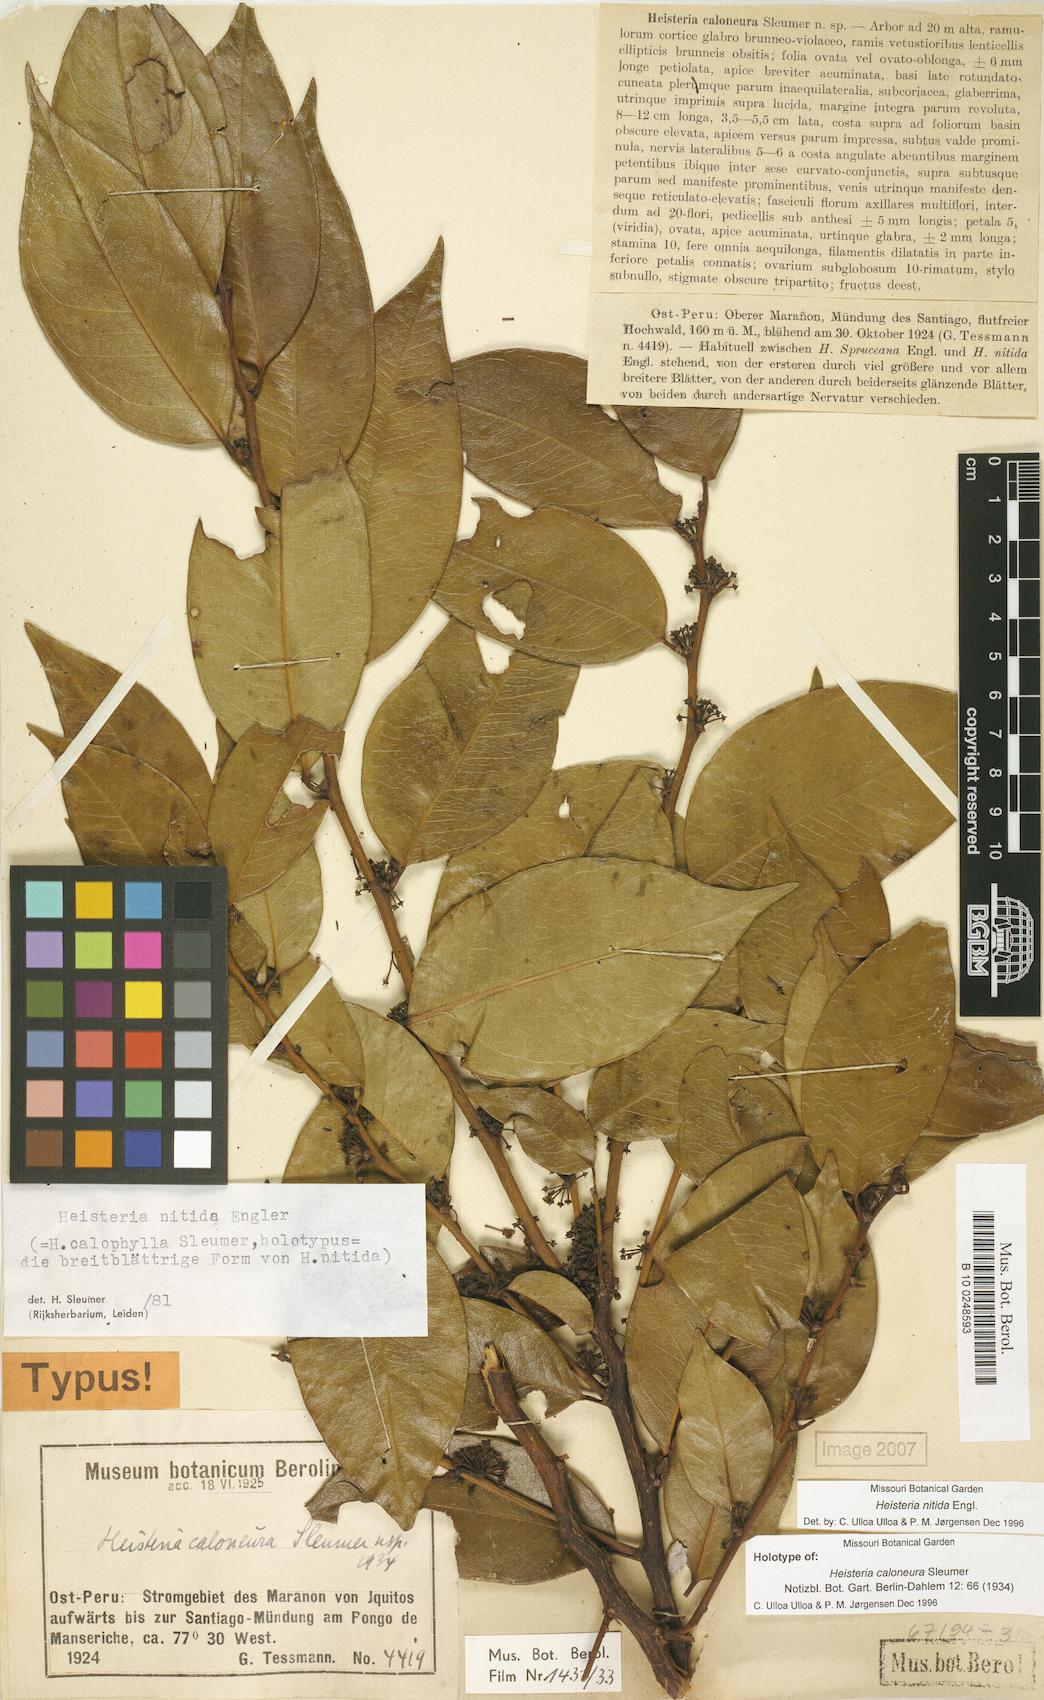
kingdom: Plantae
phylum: Tracheophyta
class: Magnoliopsida
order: Santalales
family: Erythropalaceae
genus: Heisteria
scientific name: Heisteria nitida
